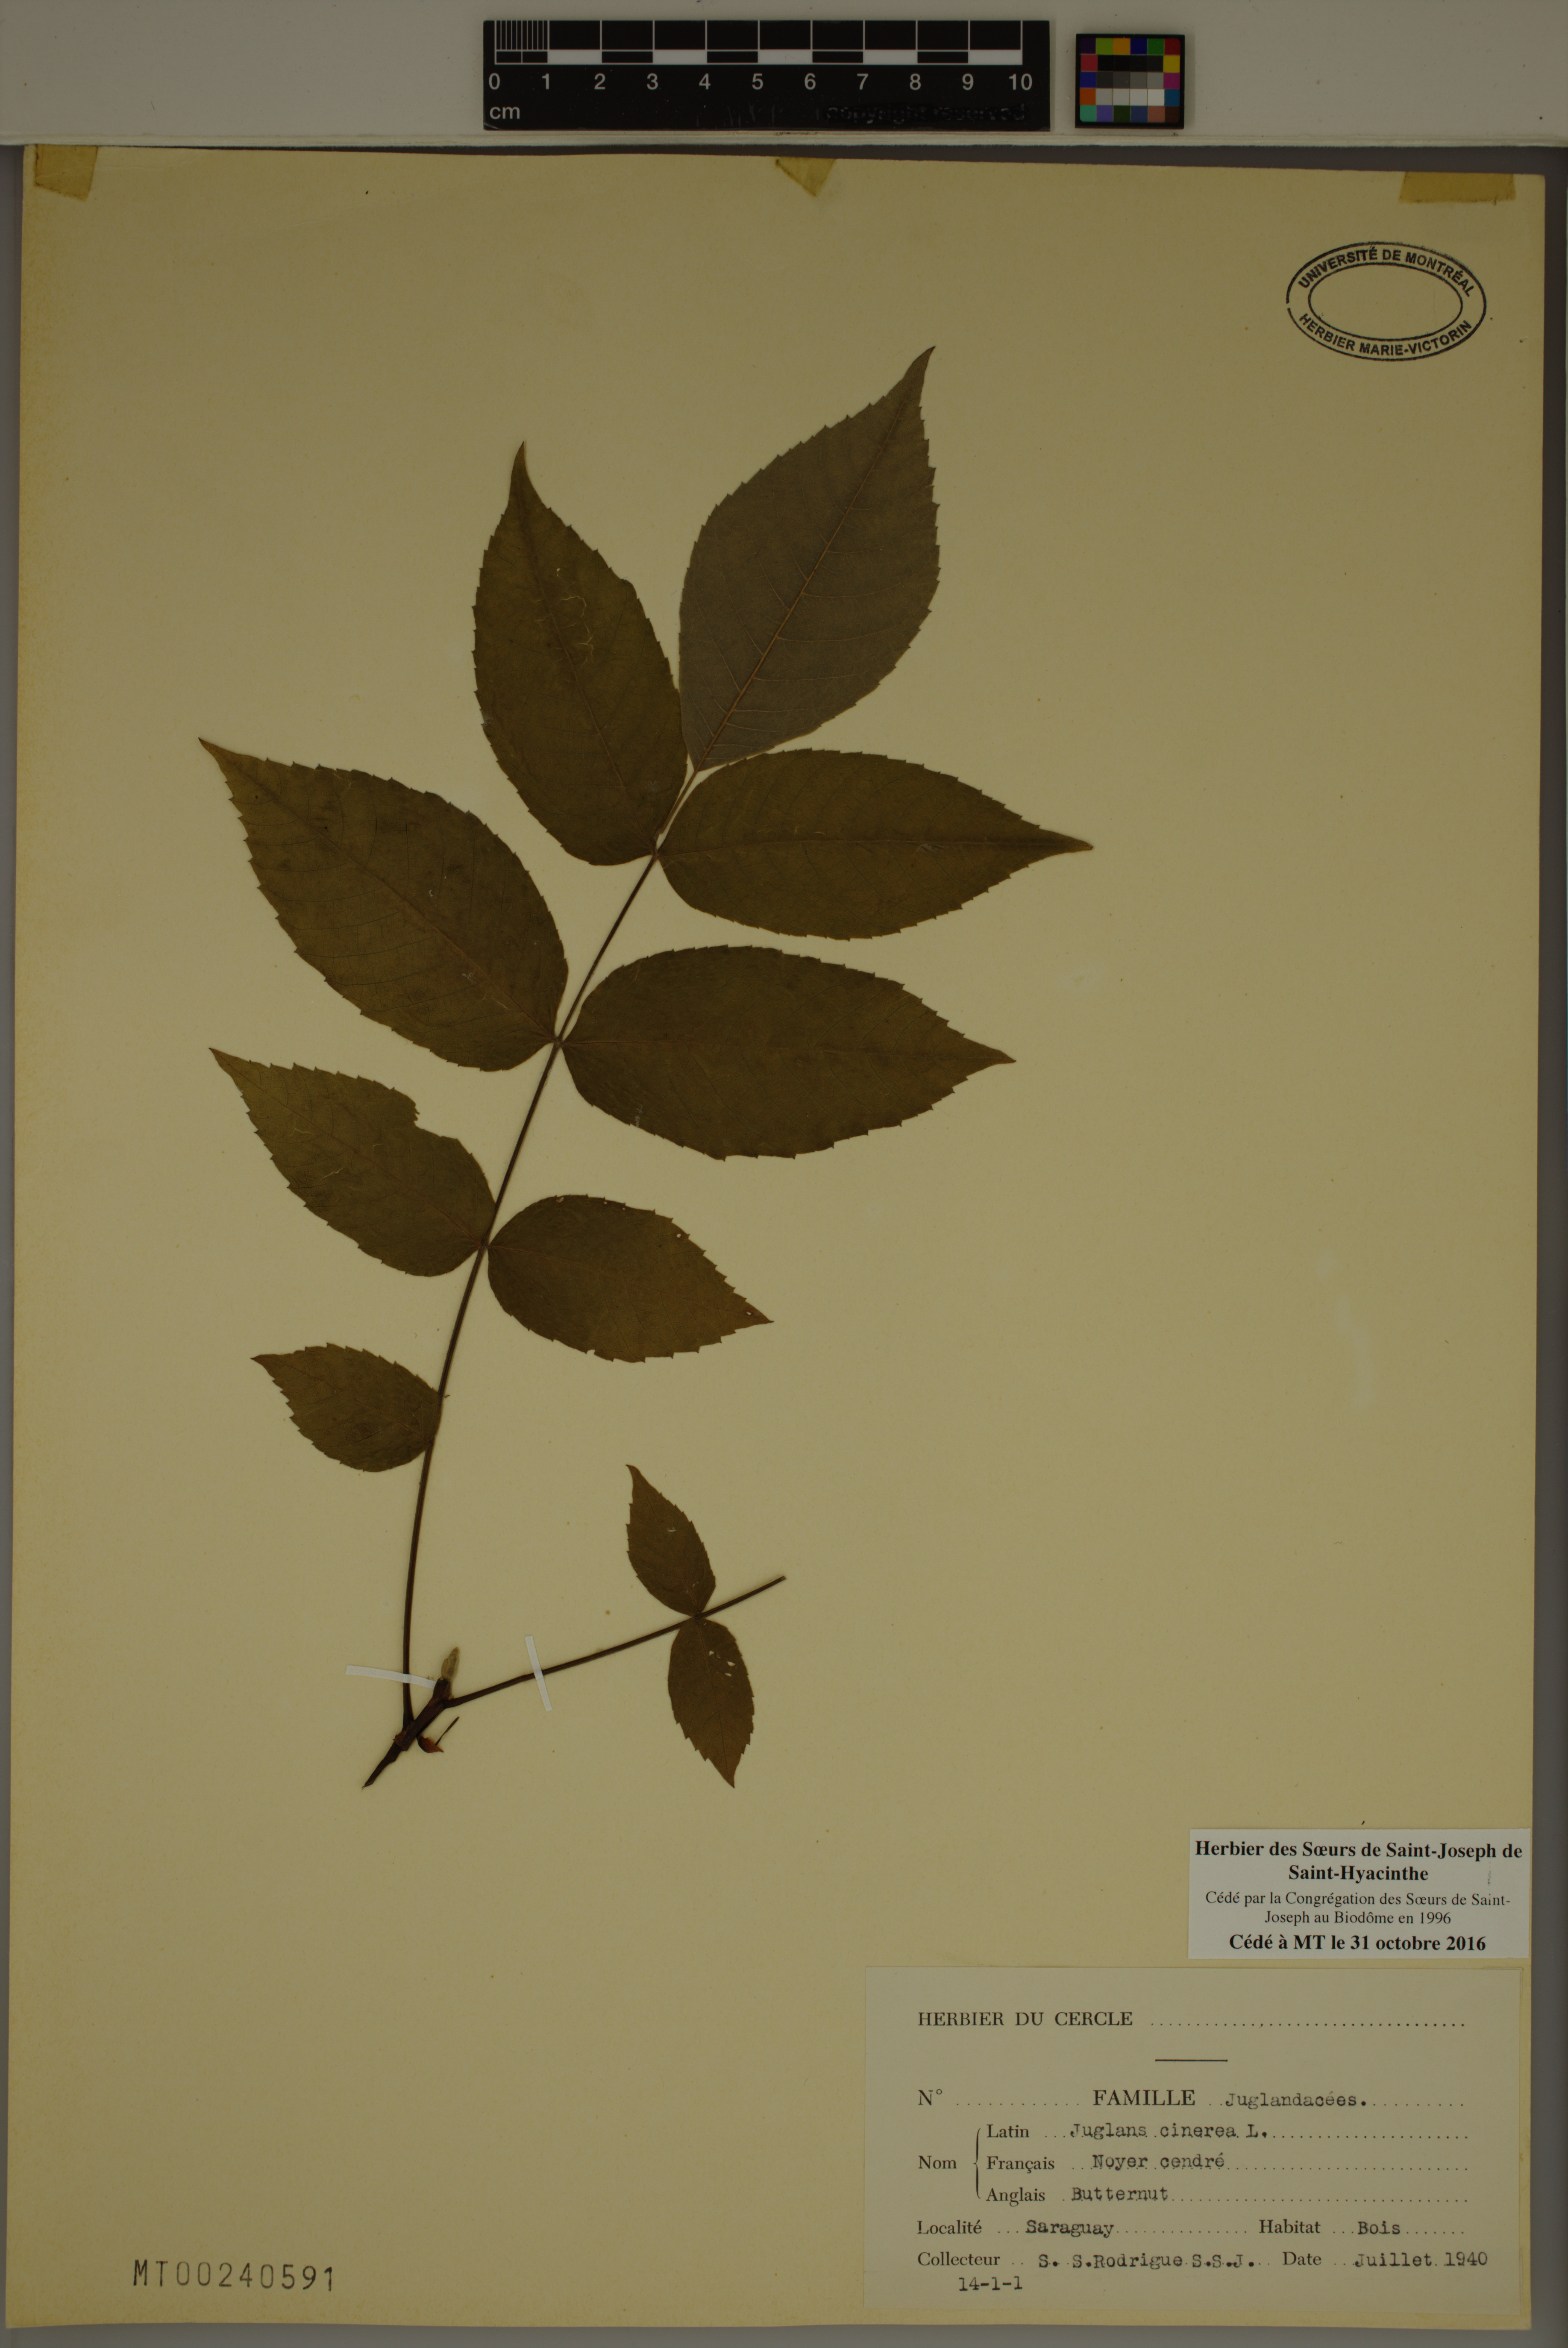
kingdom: Plantae
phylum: Tracheophyta
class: Magnoliopsida
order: Fagales
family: Juglandaceae
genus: Juglans
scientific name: Juglans cinerea
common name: Butternut
